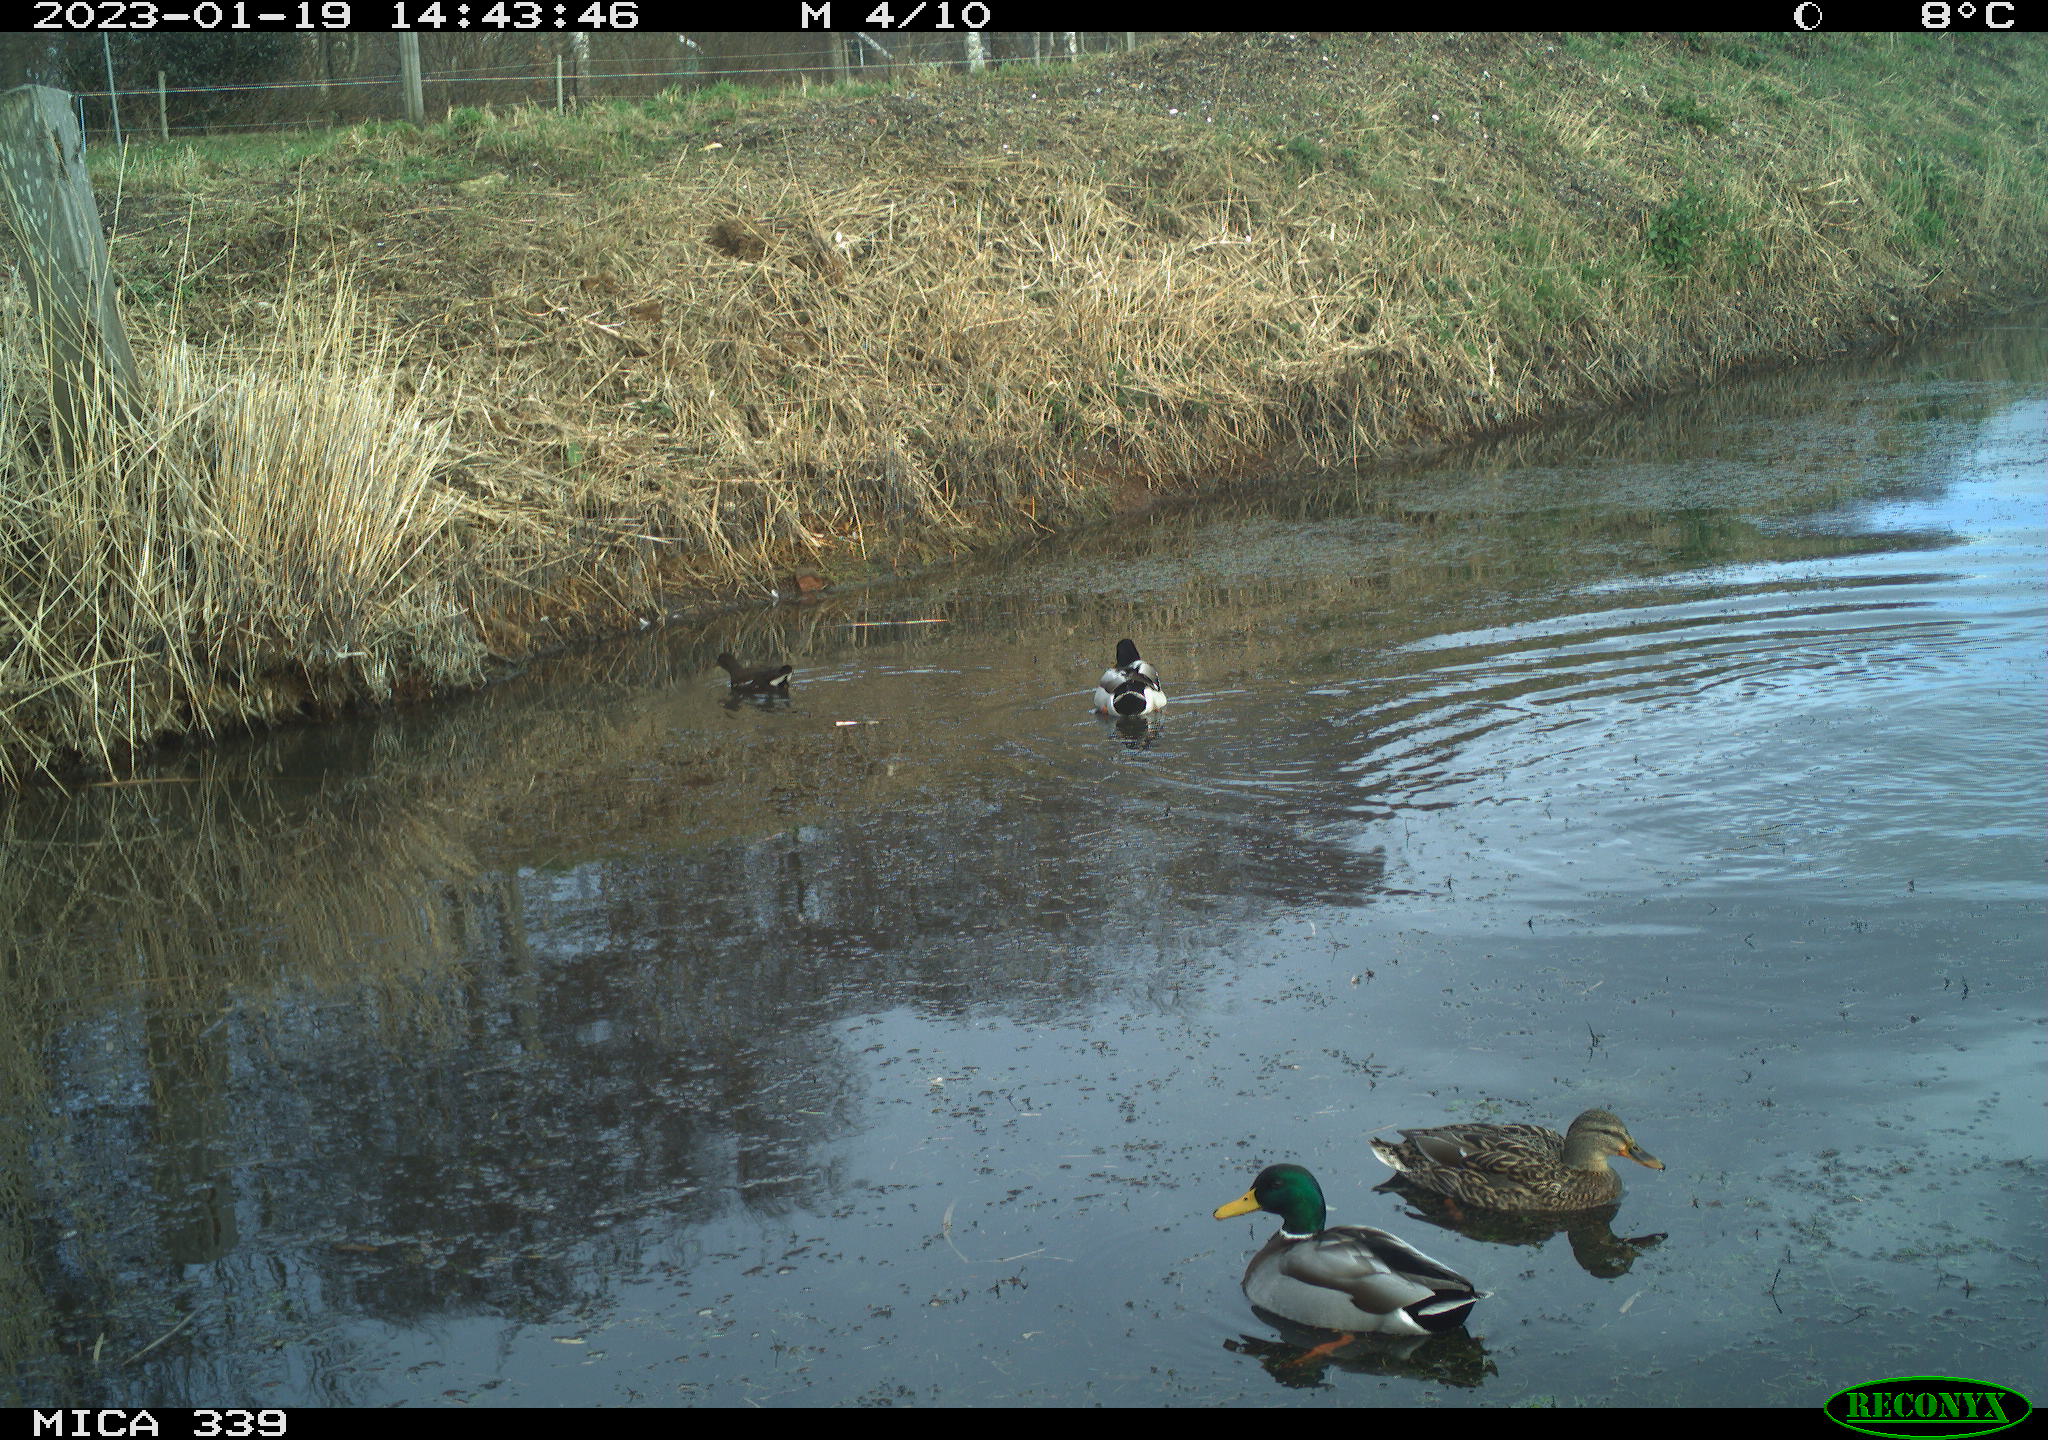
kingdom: Animalia
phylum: Chordata
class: Aves
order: Gruiformes
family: Rallidae
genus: Gallinula
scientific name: Gallinula chloropus
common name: Common moorhen
